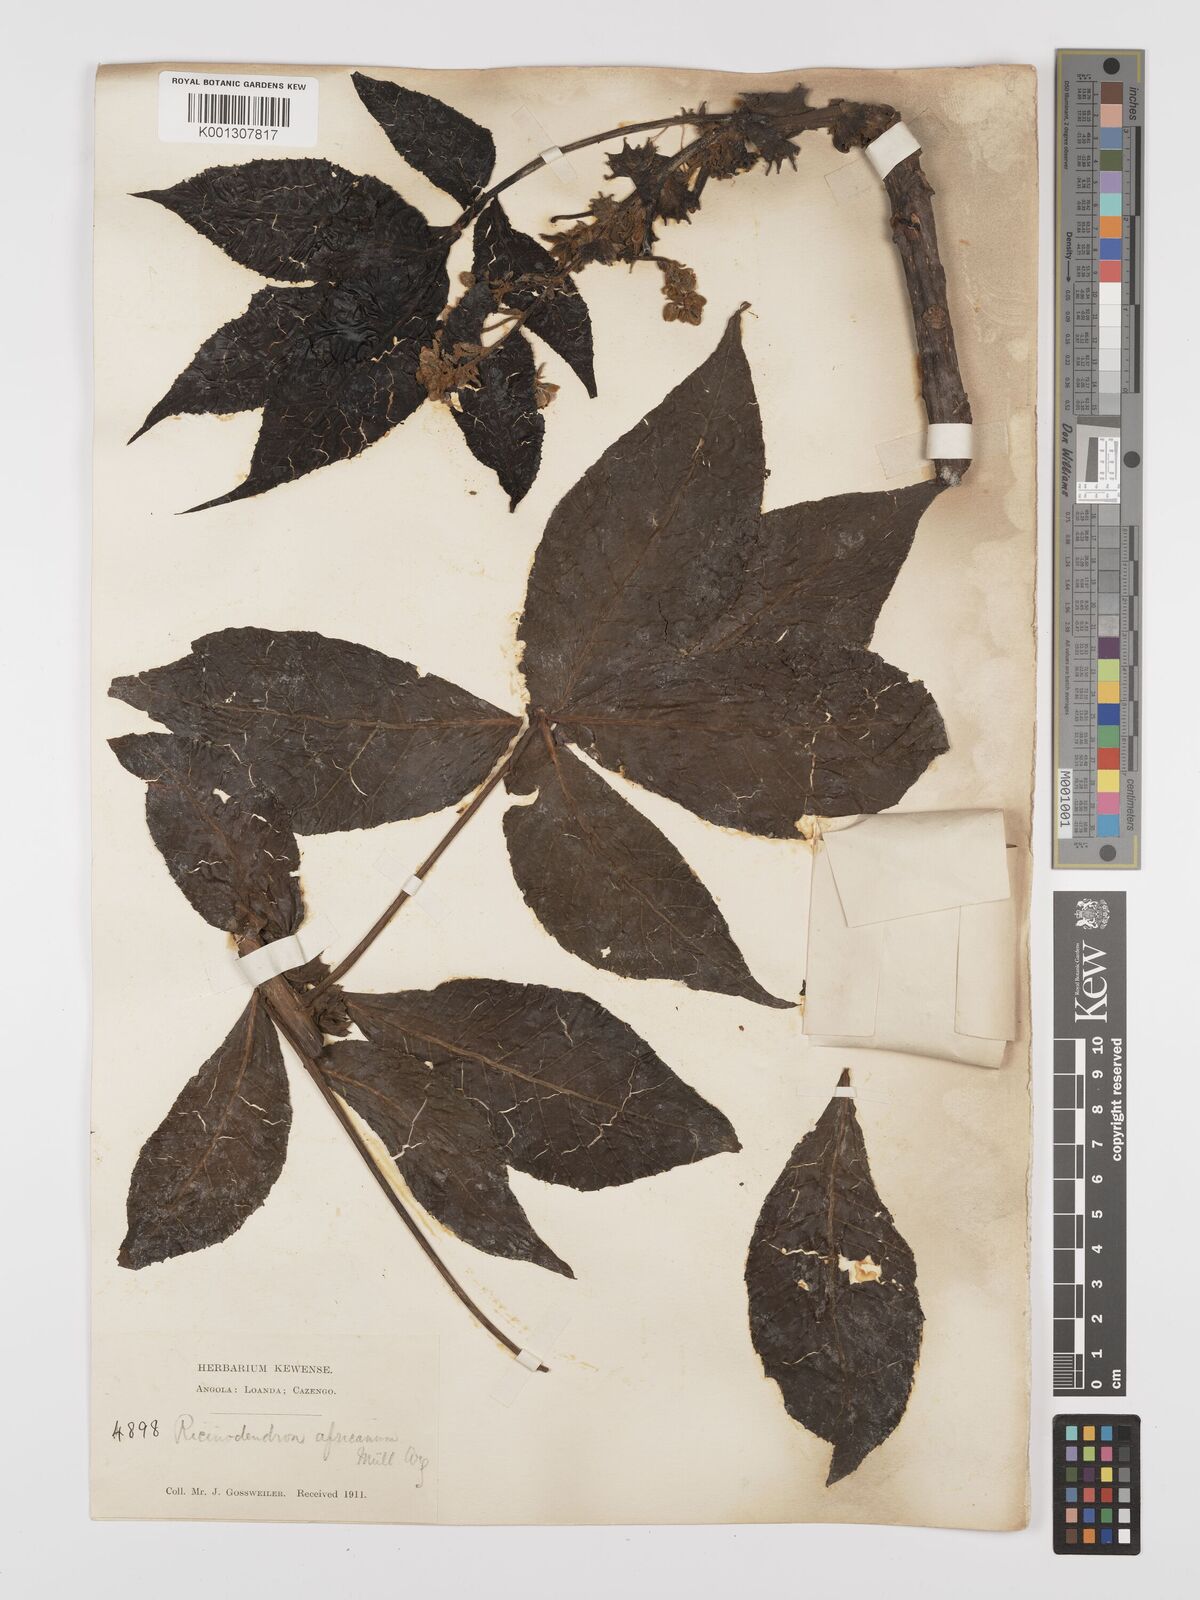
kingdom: Plantae
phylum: Tracheophyta
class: Magnoliopsida
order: Malpighiales
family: Euphorbiaceae
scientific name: Euphorbiaceae
